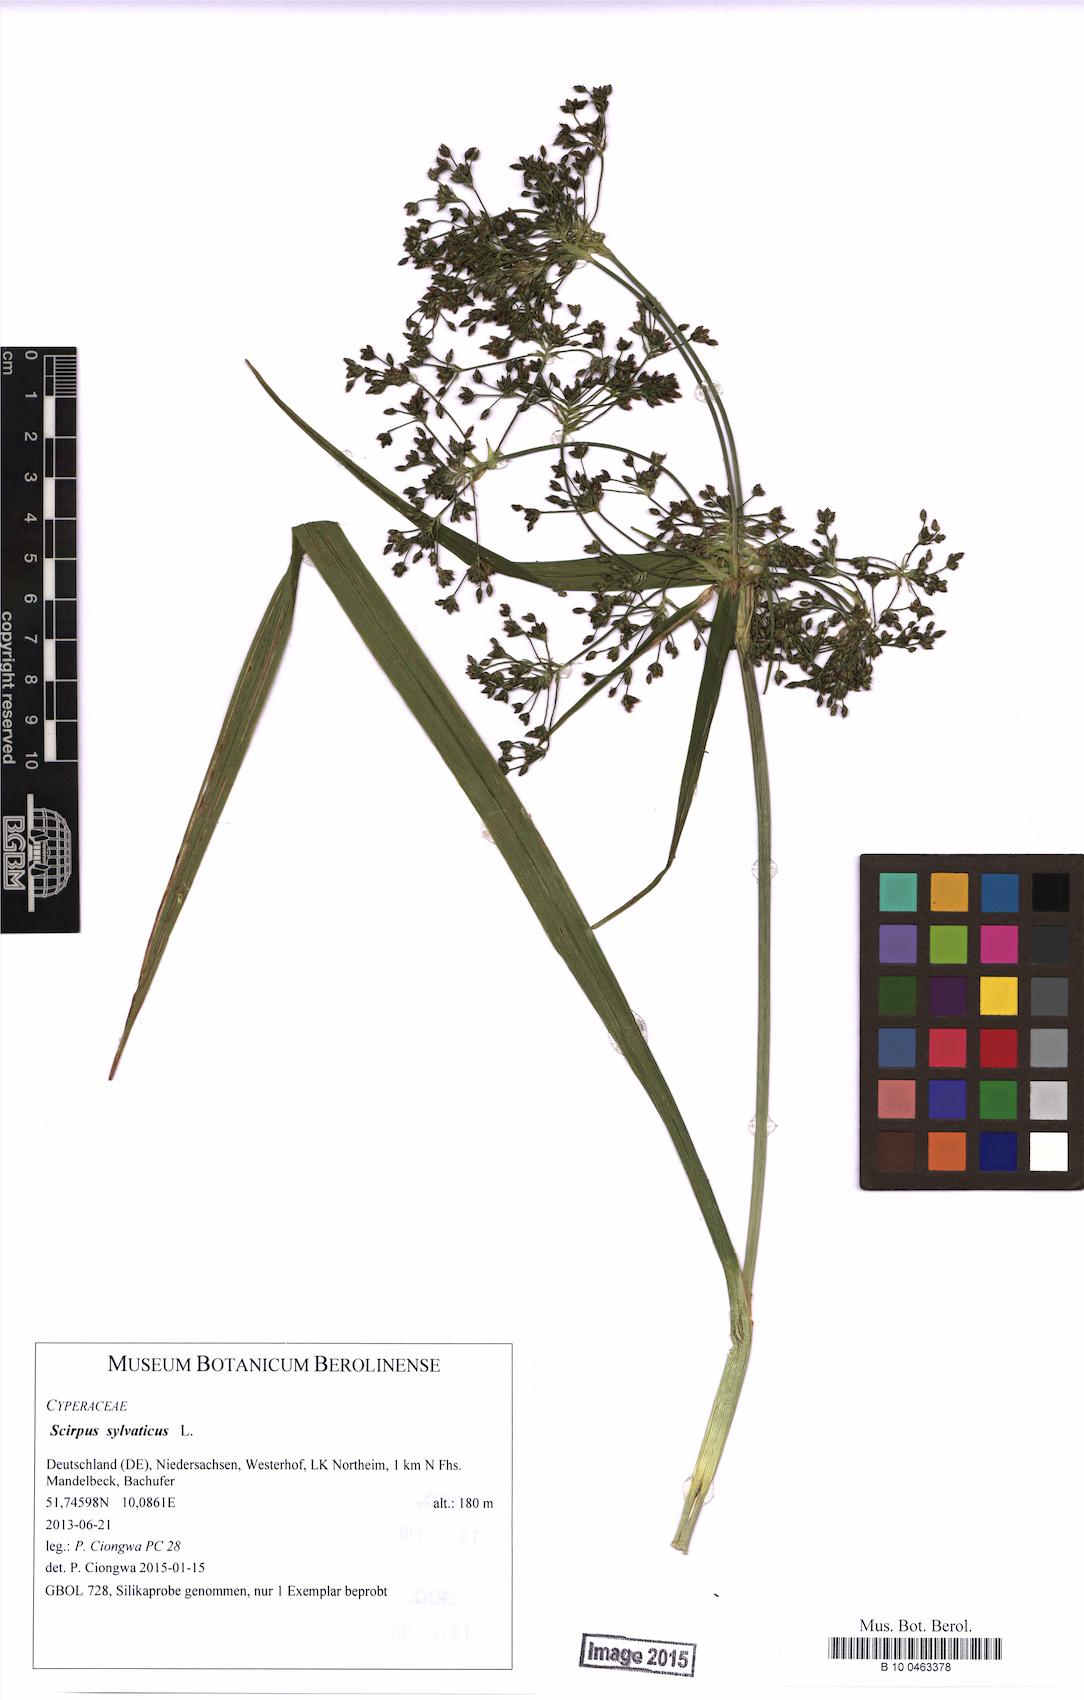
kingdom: Plantae
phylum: Tracheophyta
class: Liliopsida
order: Poales
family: Cyperaceae
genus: Scirpus
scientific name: Scirpus sylvaticus
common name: Wood club-rush
